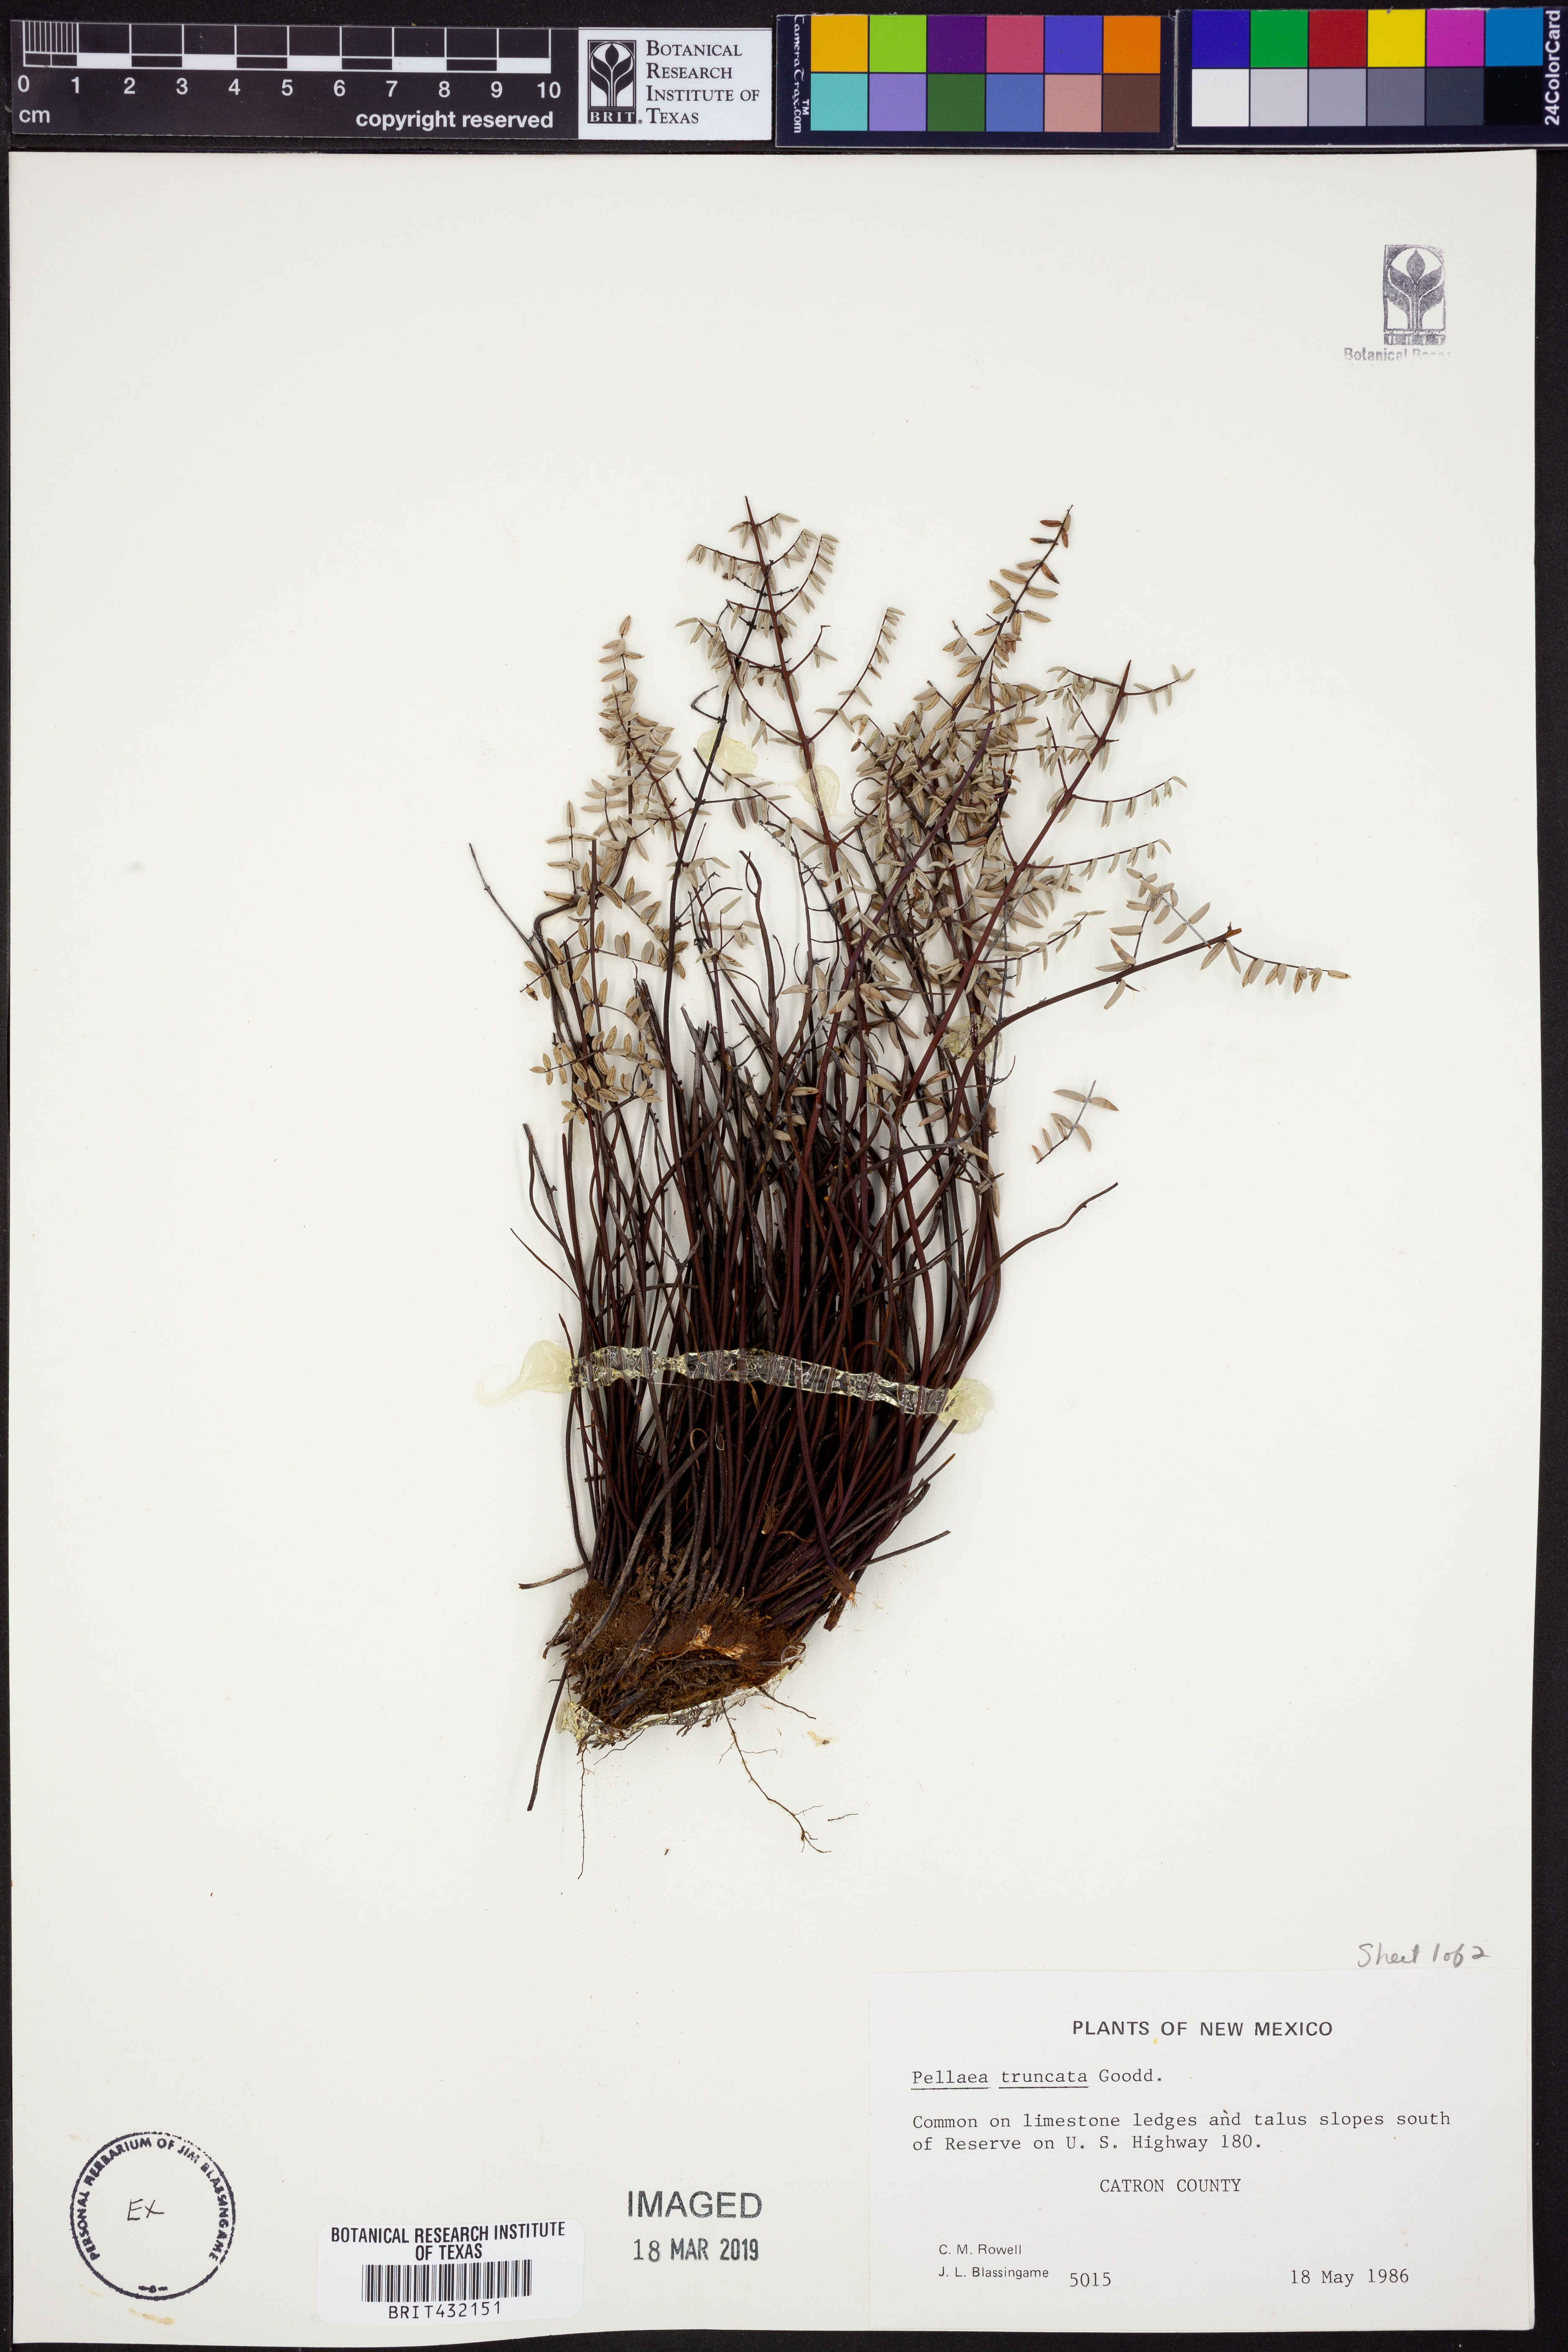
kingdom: Plantae
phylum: Tracheophyta
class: Polypodiopsida
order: Polypodiales
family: Pteridaceae
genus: Pellaea
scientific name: Pellaea truncata
